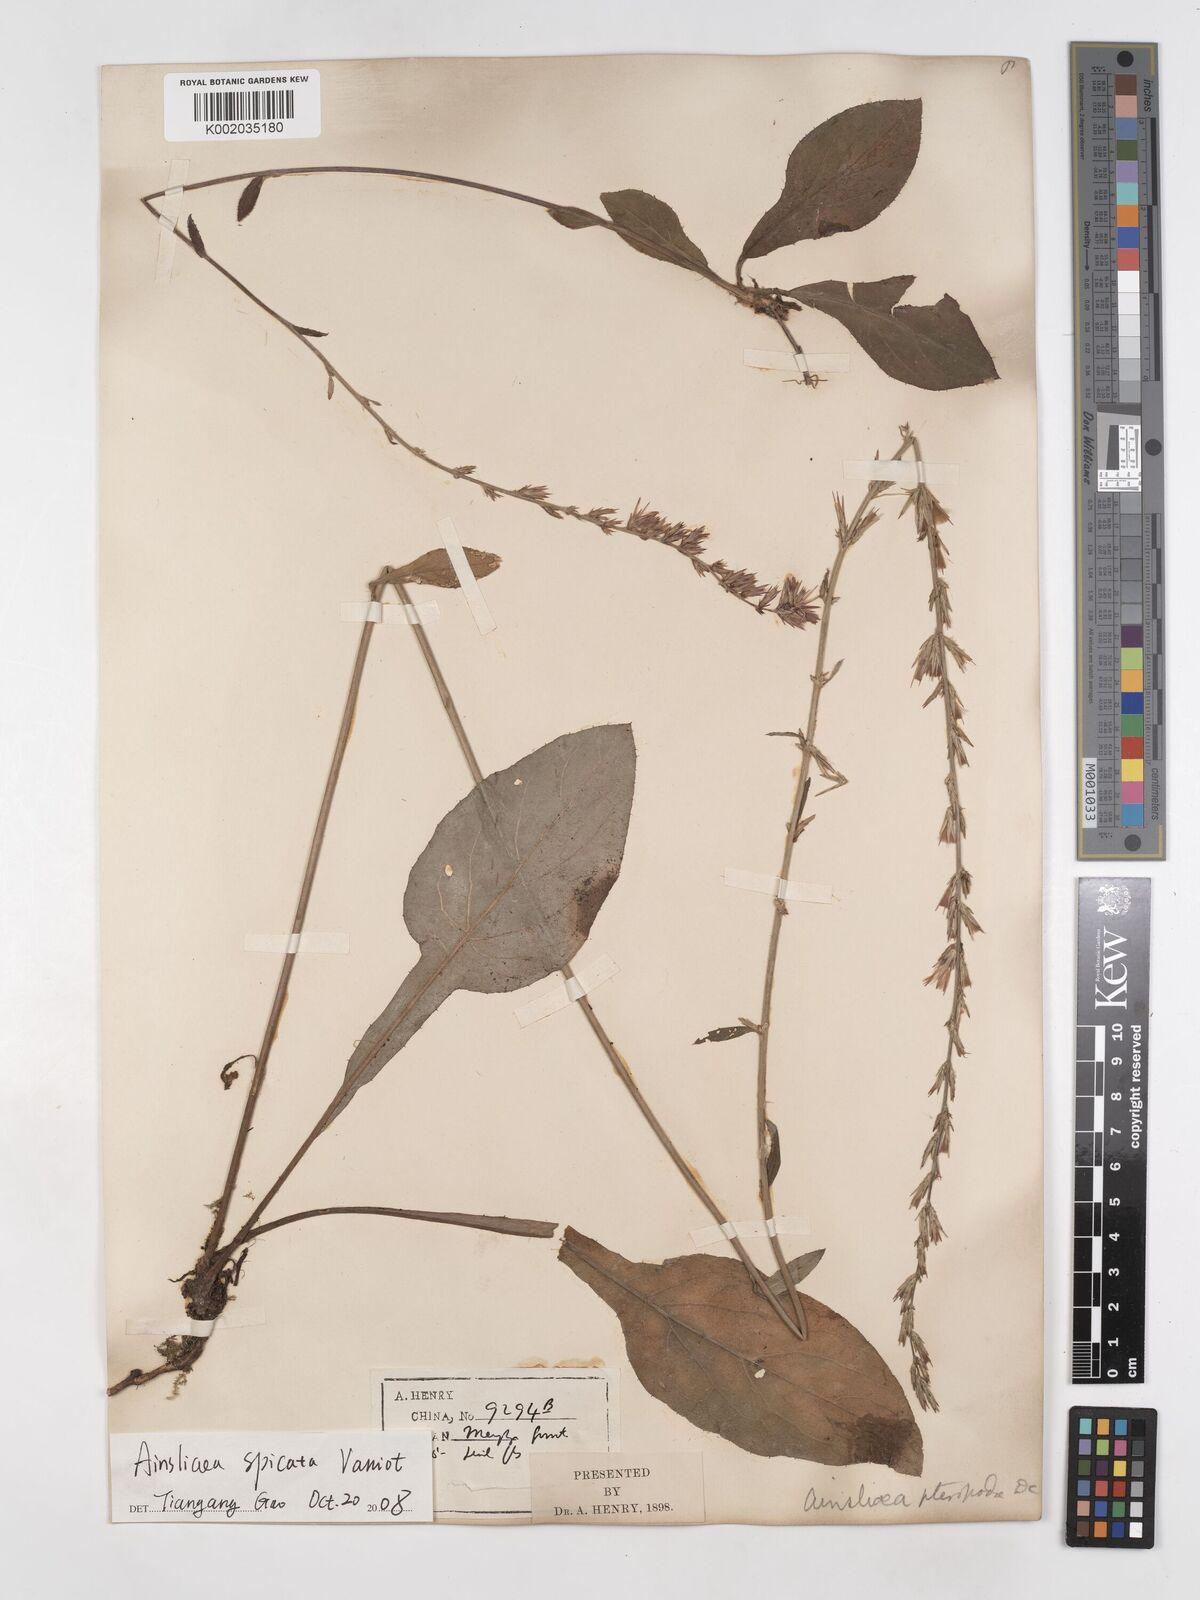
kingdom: Plantae
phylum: Tracheophyta
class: Magnoliopsida
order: Asterales
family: Asteraceae
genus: Ainsliaea
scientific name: Ainsliaea spicata
